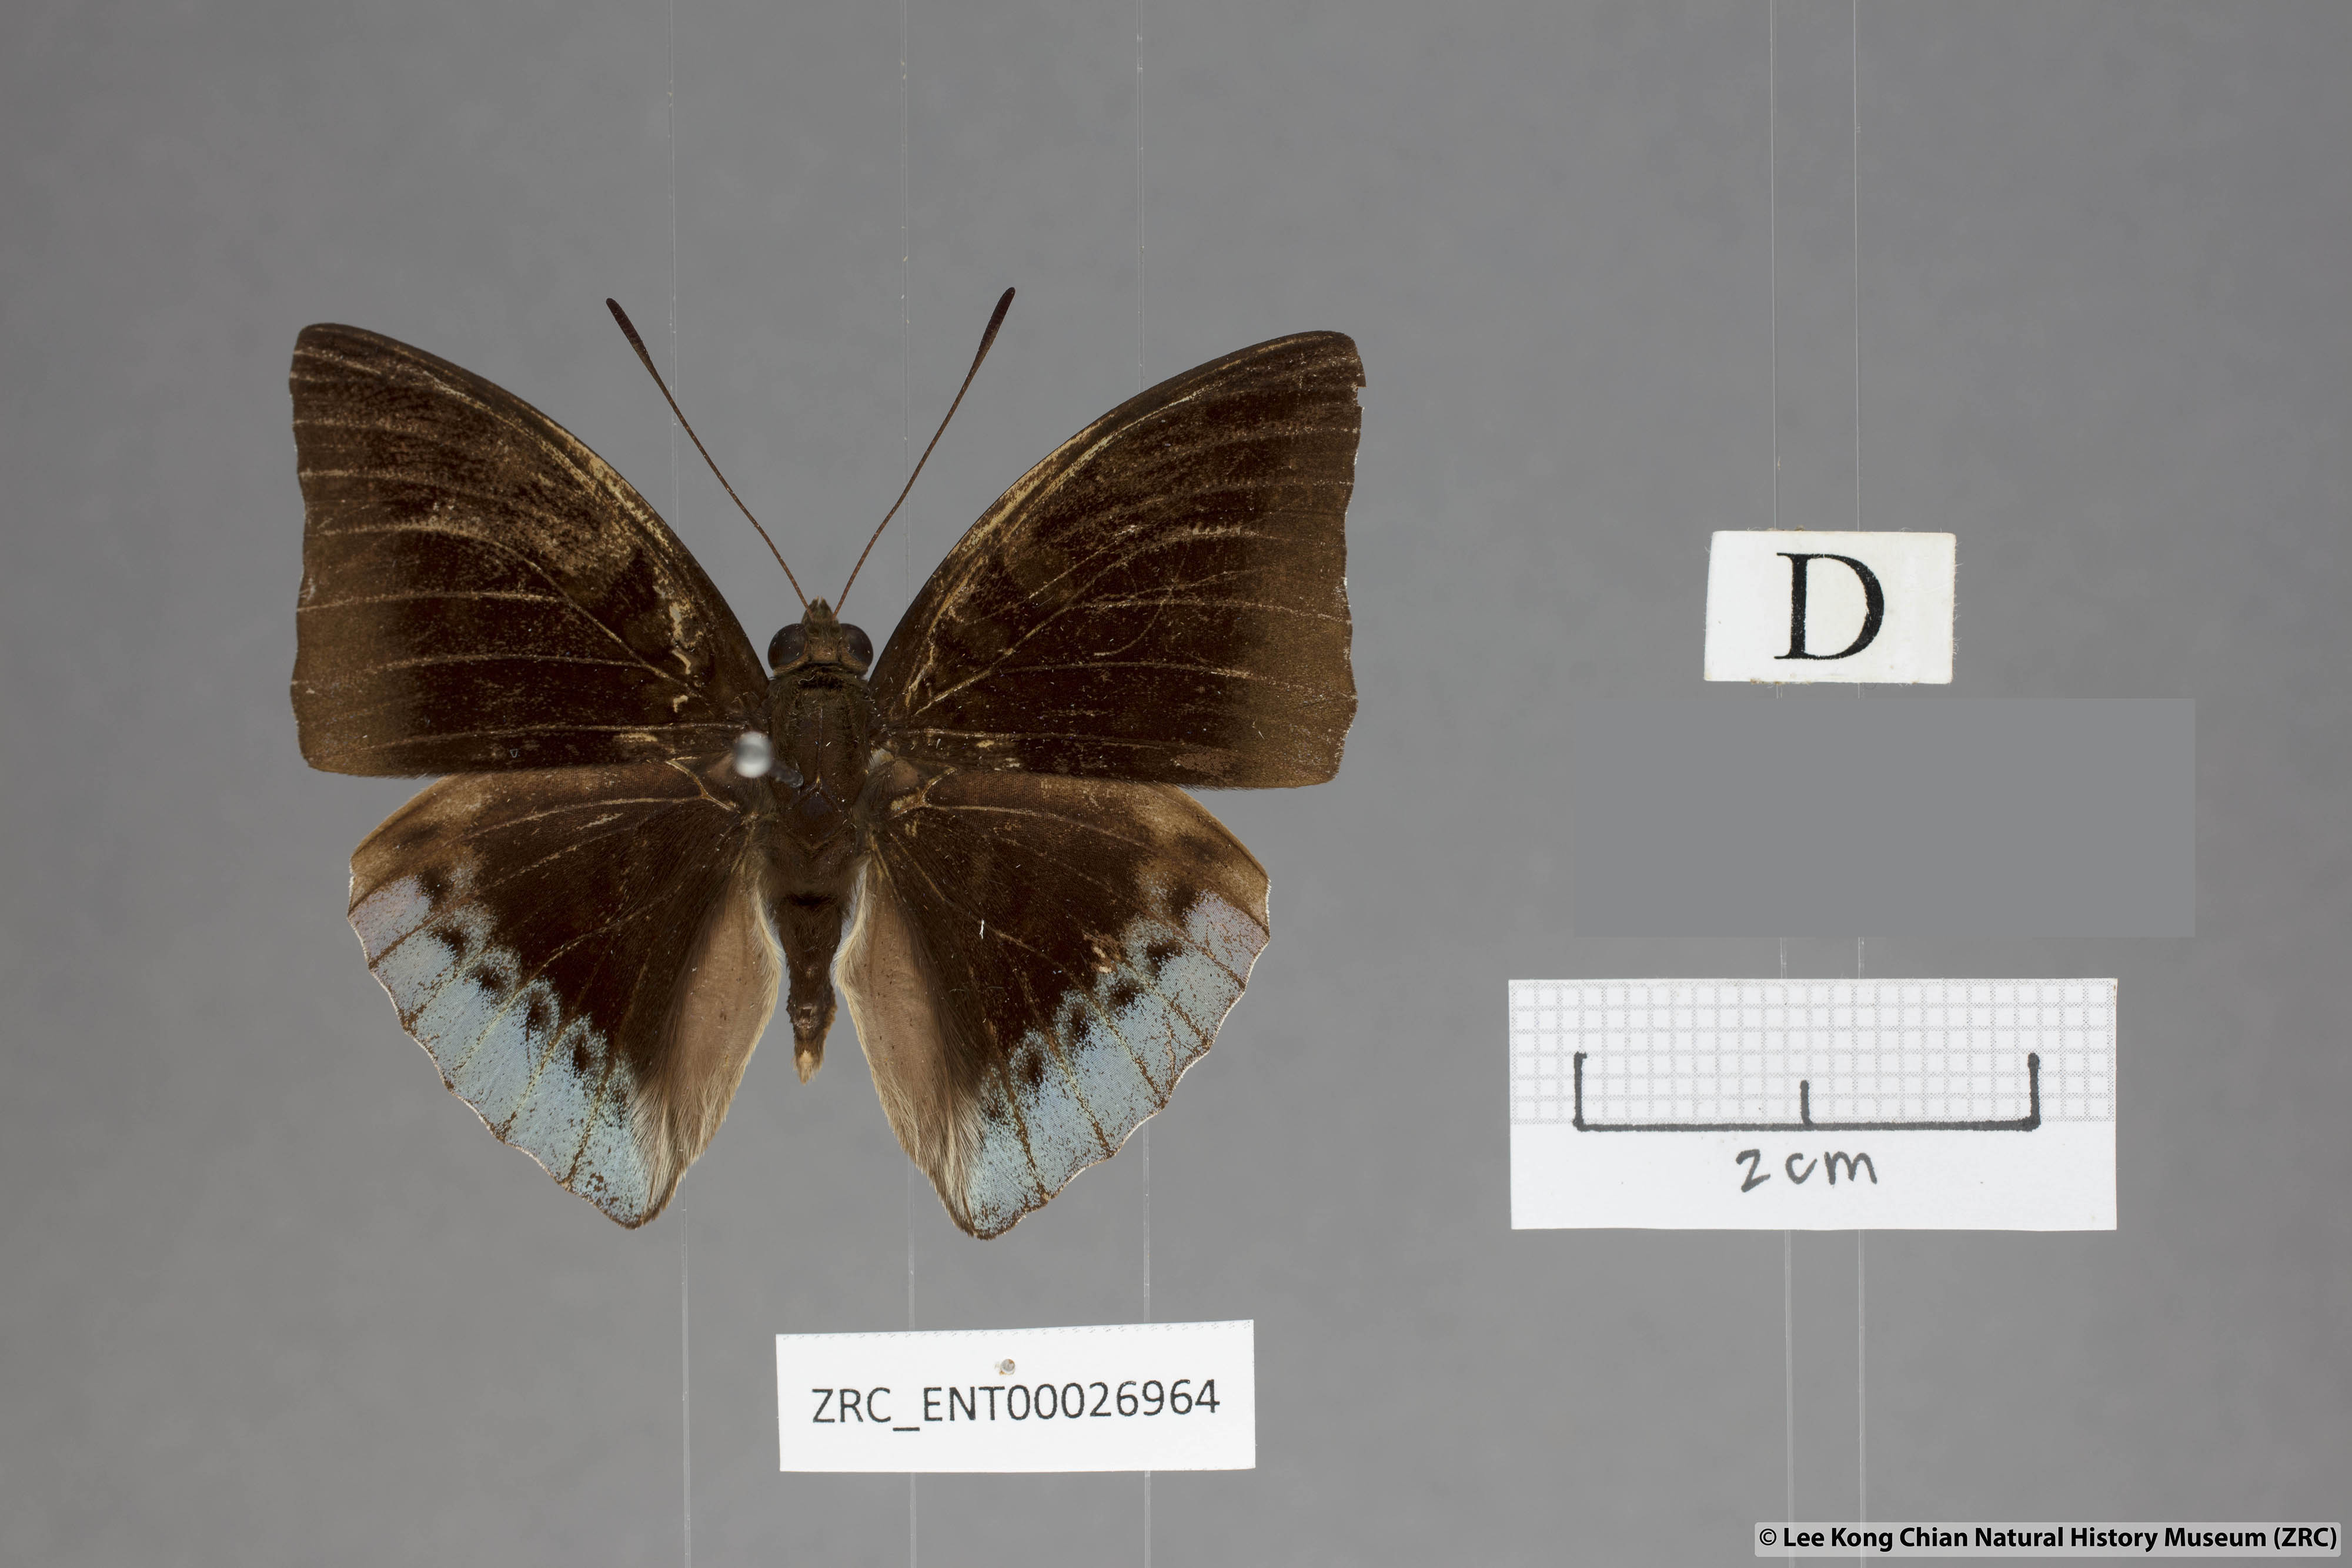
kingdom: Animalia
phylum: Arthropoda
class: Insecta
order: Lepidoptera
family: Nymphalidae
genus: Euthalia
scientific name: Euthalia mahadeva
